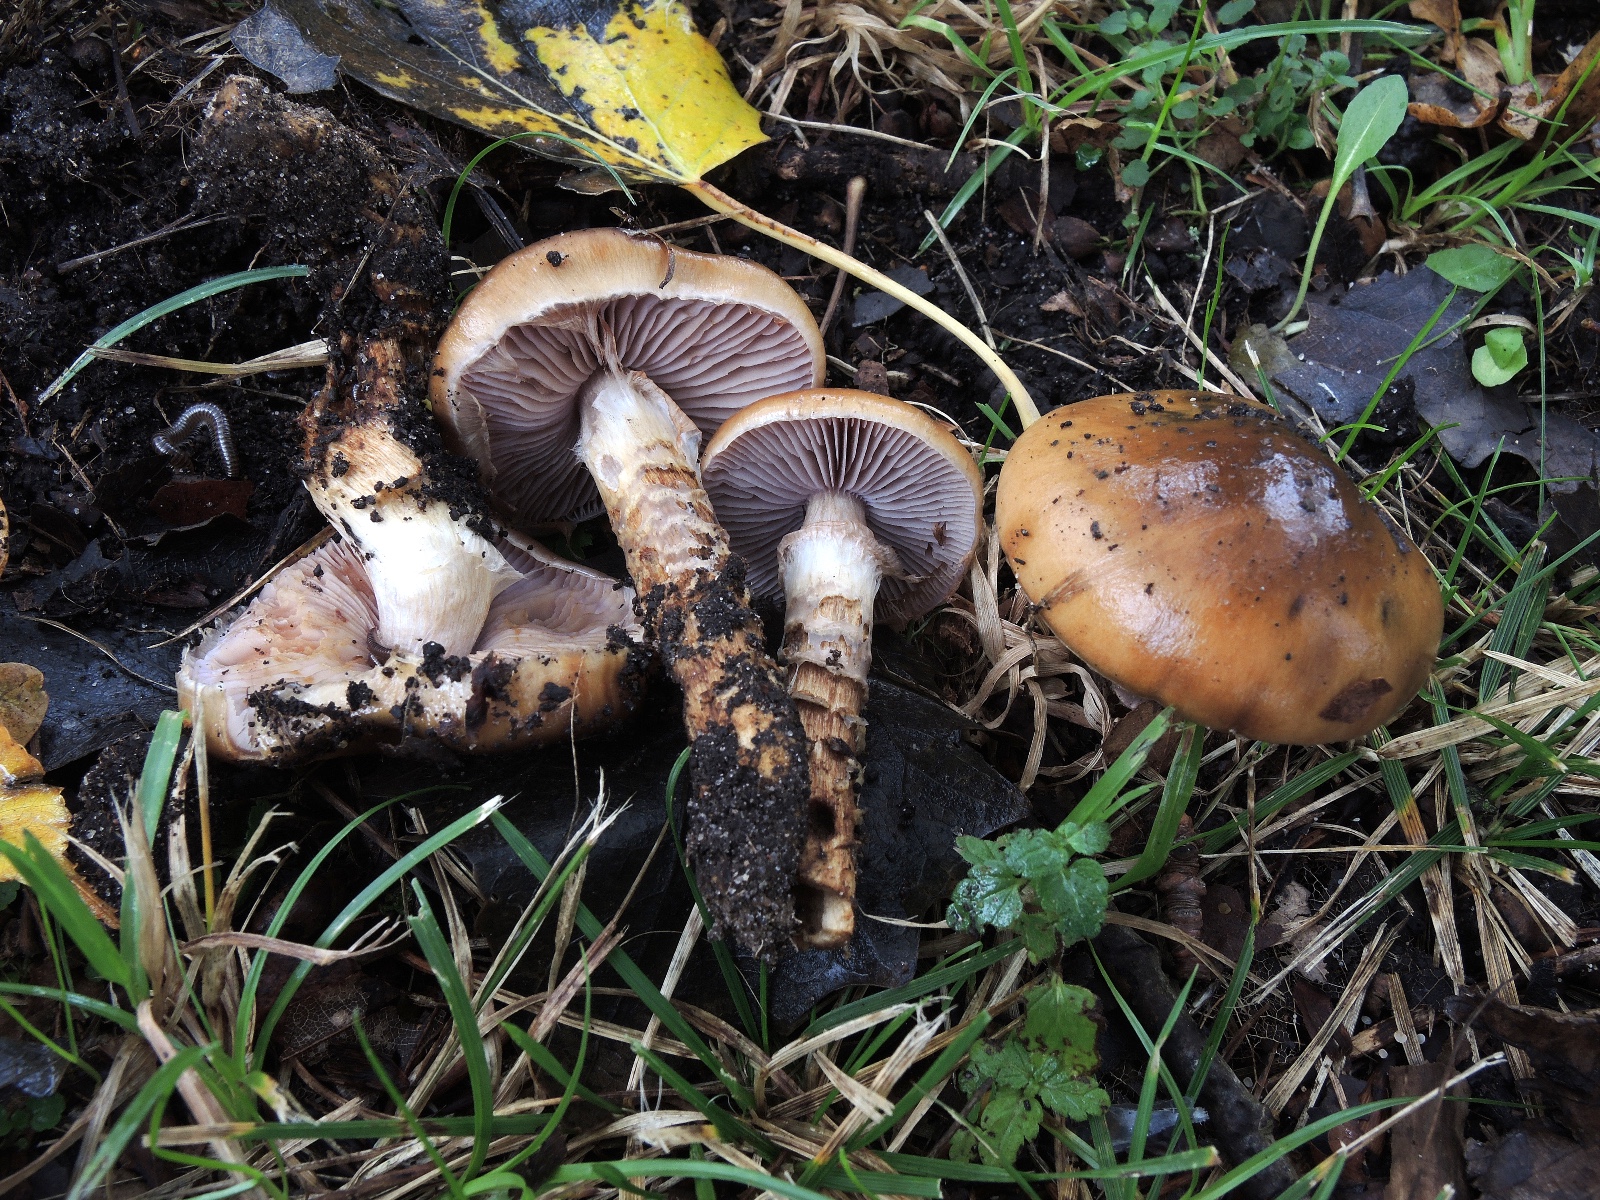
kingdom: Fungi
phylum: Basidiomycota
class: Agaricomycetes
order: Agaricales
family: Cortinariaceae
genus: Cortinarius
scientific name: Cortinarius trivialis
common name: brunslimet slørhat
